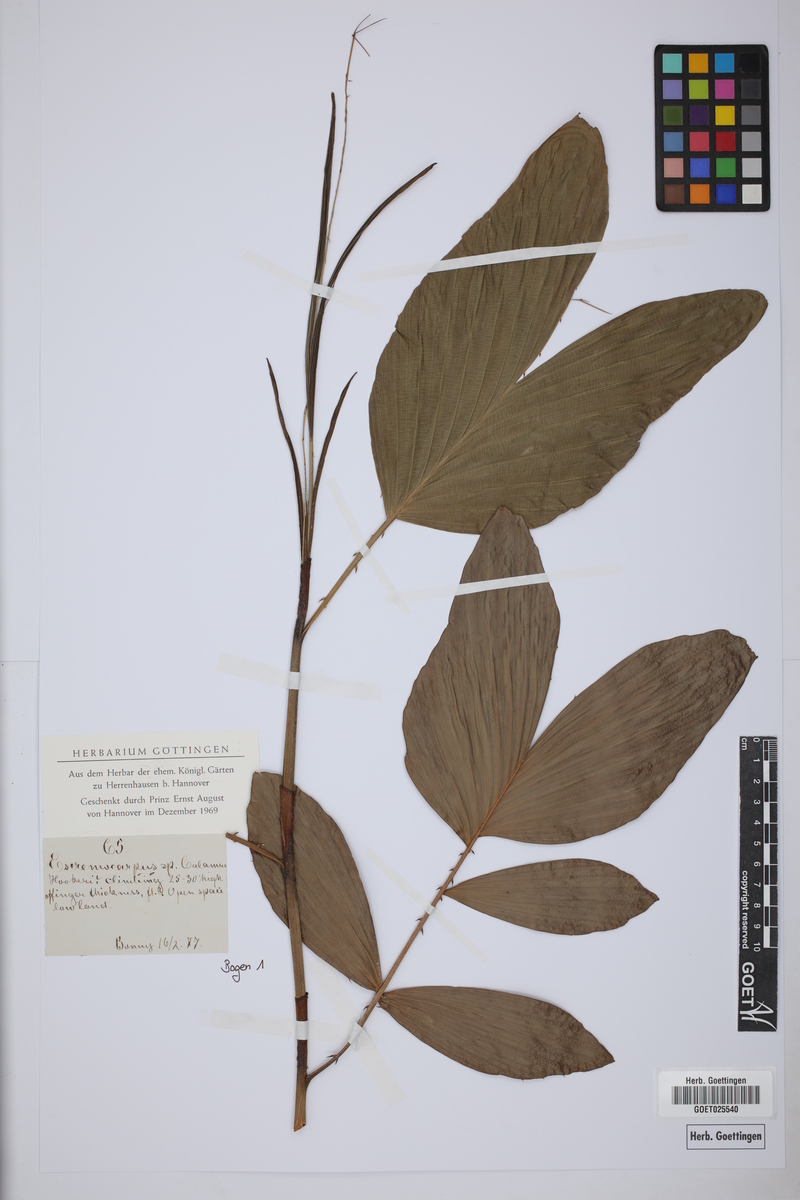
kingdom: Plantae
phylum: Tracheophyta
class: Liliopsida
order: Arecales
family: Arecaceae
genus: Eremospatha
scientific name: Eremospatha hookeri
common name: Rattan
